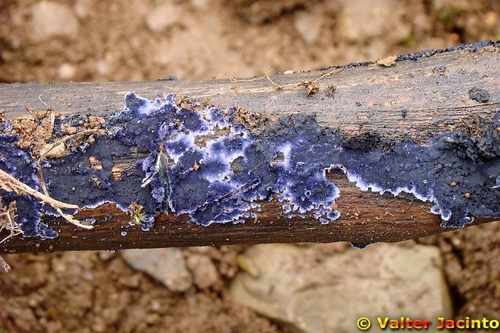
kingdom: Fungi
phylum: Basidiomycota
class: Agaricomycetes
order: Polyporales
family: Phanerochaetaceae
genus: Terana
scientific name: Terana caerulea
